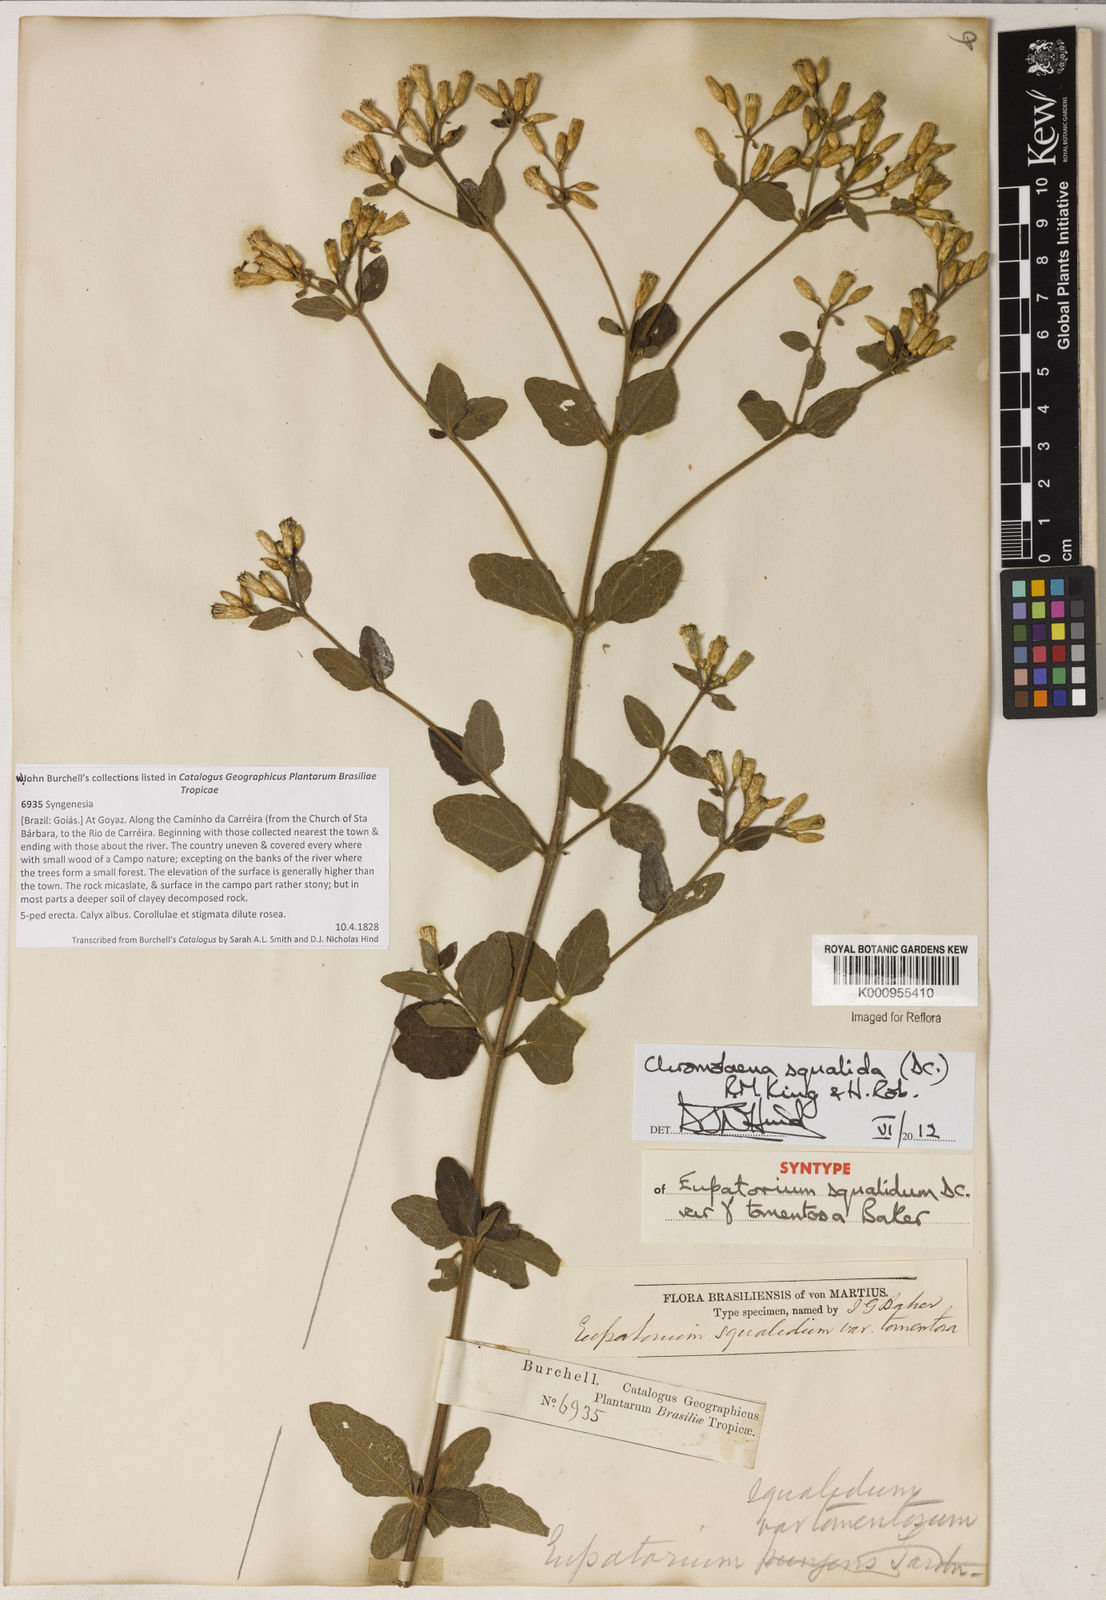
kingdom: Plantae
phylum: Tracheophyta
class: Magnoliopsida
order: Asterales
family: Asteraceae
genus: Chromolaena
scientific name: Chromolaena squalida
